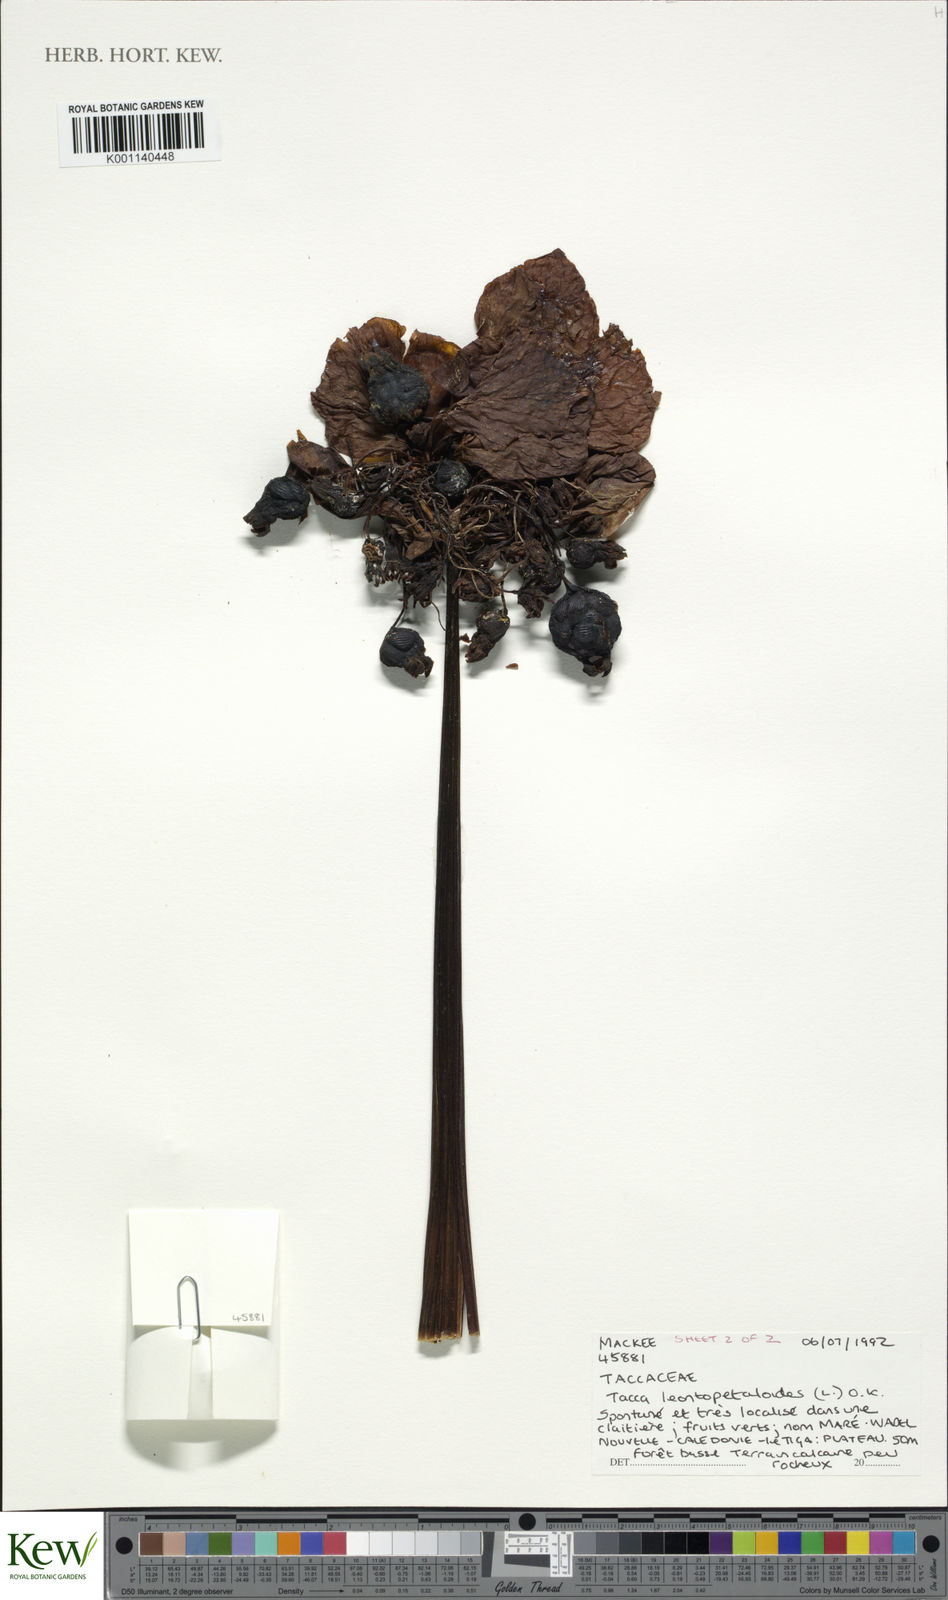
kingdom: Plantae
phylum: Tracheophyta
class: Liliopsida
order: Dioscoreales
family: Dioscoreaceae
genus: Tacca
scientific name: Tacca leontopetaloides
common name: Arrowroot
